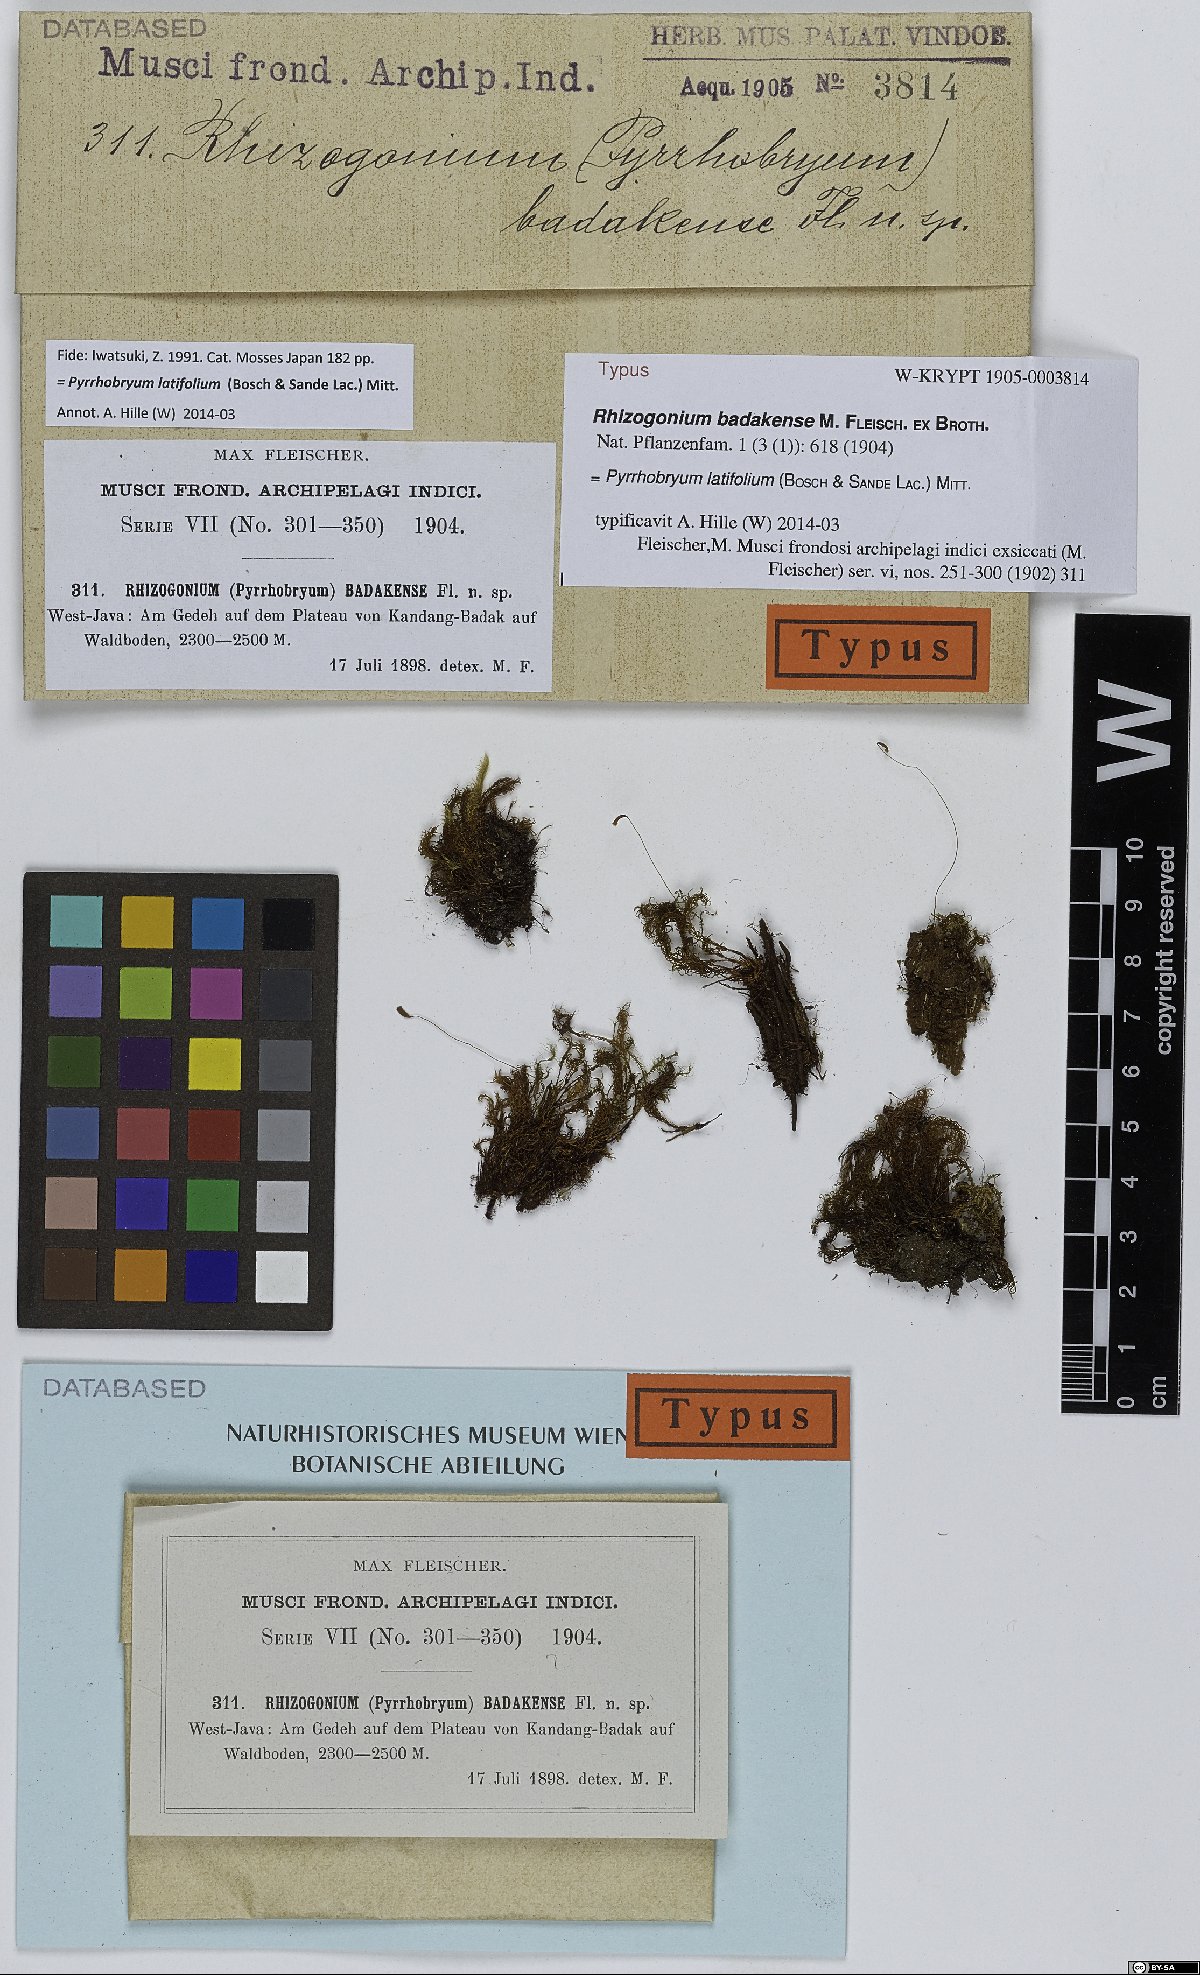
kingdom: Plantae
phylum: Bryophyta
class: Bryopsida
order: Rhizogoniales
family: Calomniaceae
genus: Pyrrhobryum
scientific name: Pyrrhobryum latifolium
